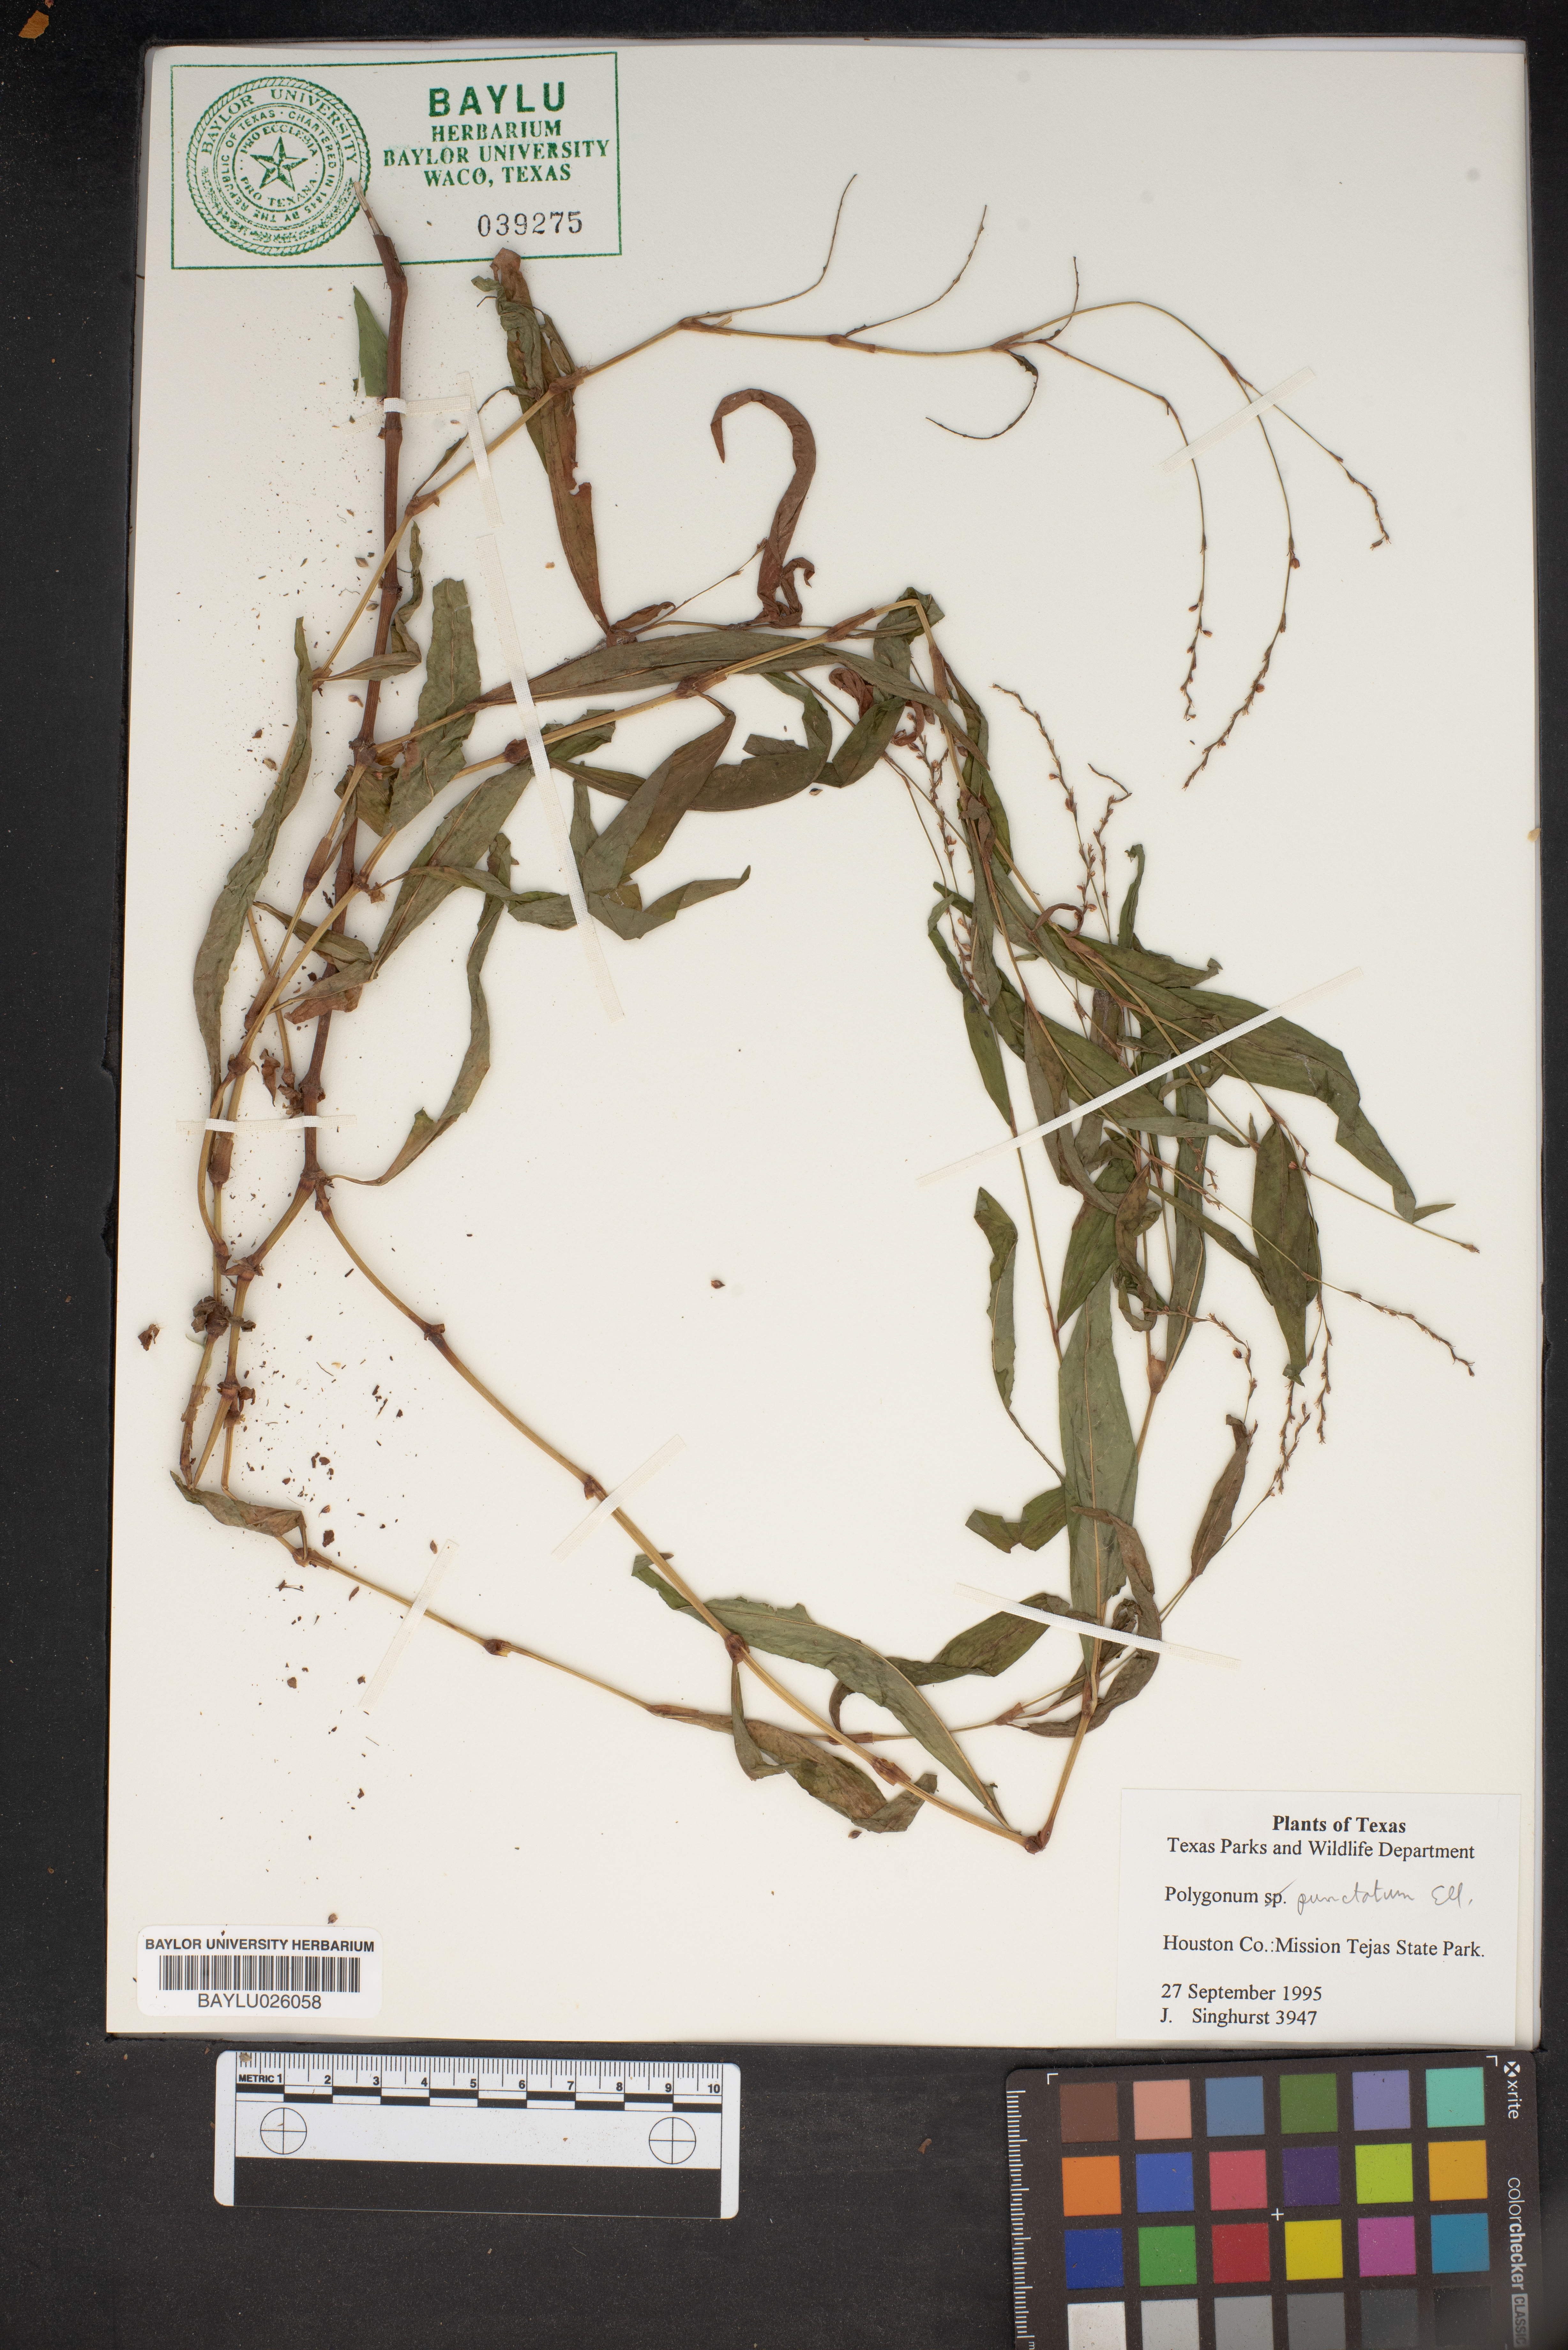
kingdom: Plantae
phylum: Tracheophyta
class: Magnoliopsida
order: Caryophyllales
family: Polygonaceae
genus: Persicaria
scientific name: Persicaria punctata
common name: Dotted smartweed
